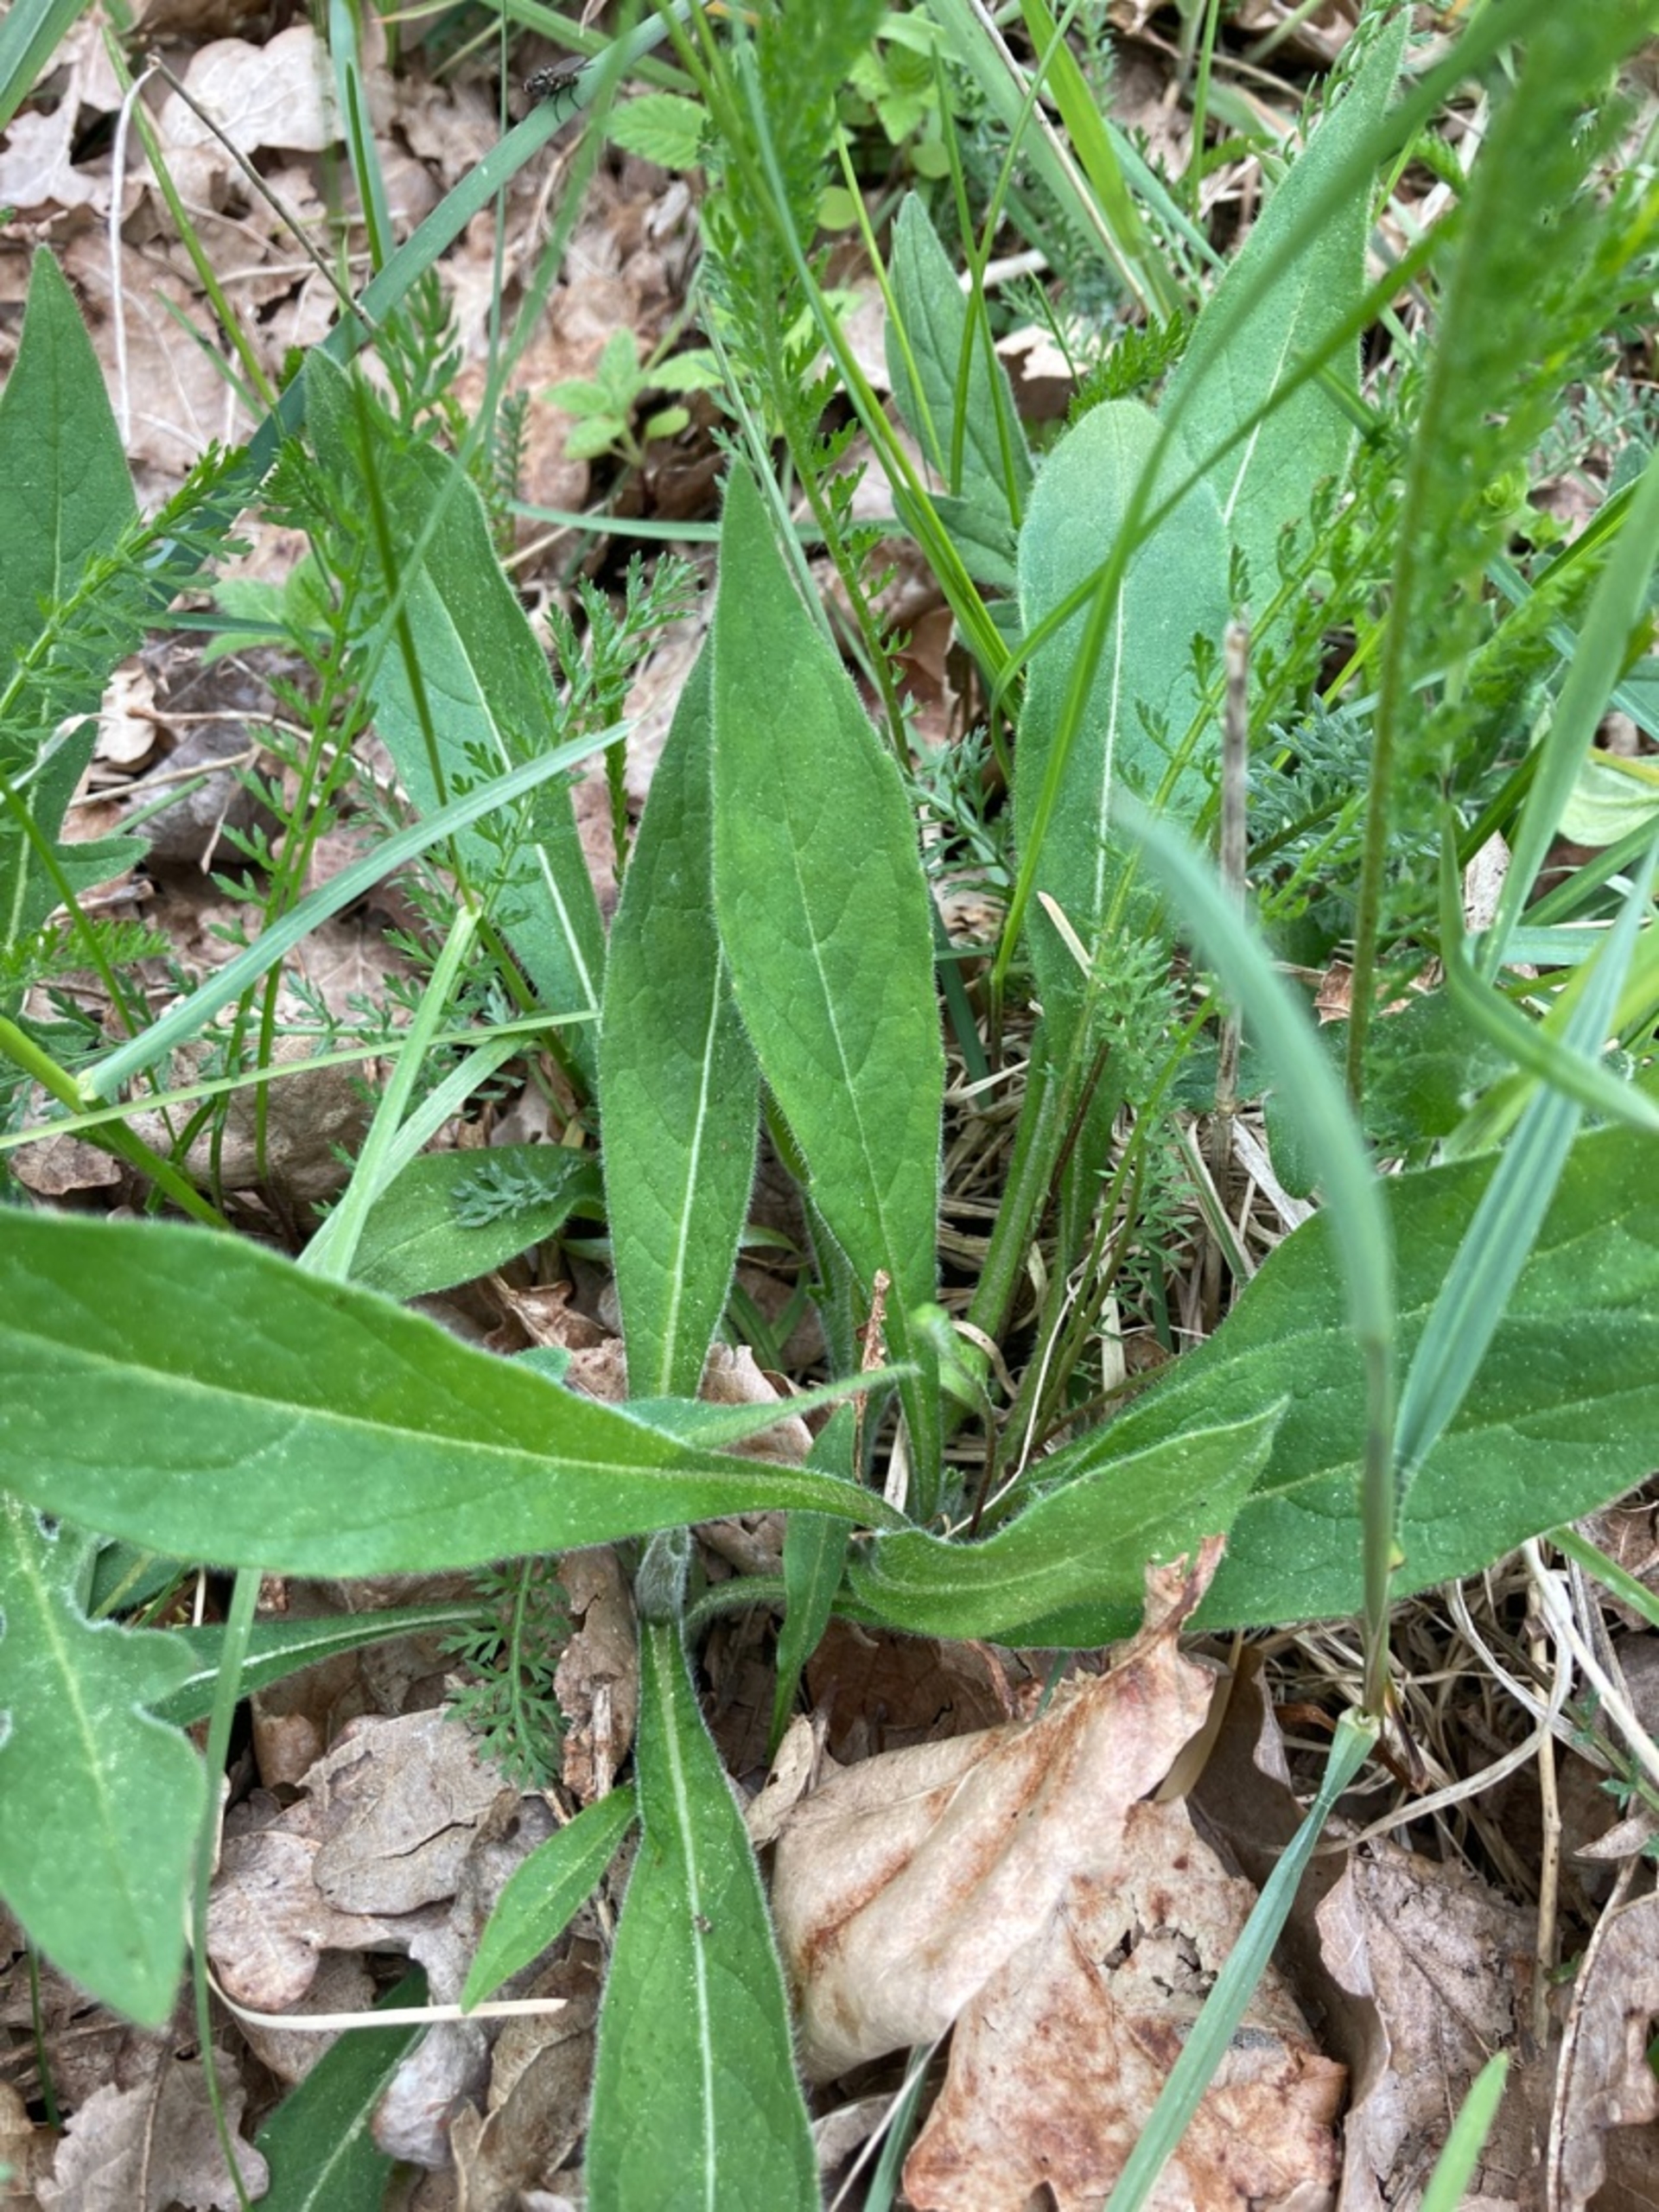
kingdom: Plantae
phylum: Tracheophyta
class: Magnoliopsida
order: Dipsacales
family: Caprifoliaceae
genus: Knautia
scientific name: Knautia arvensis
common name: Blåhat
